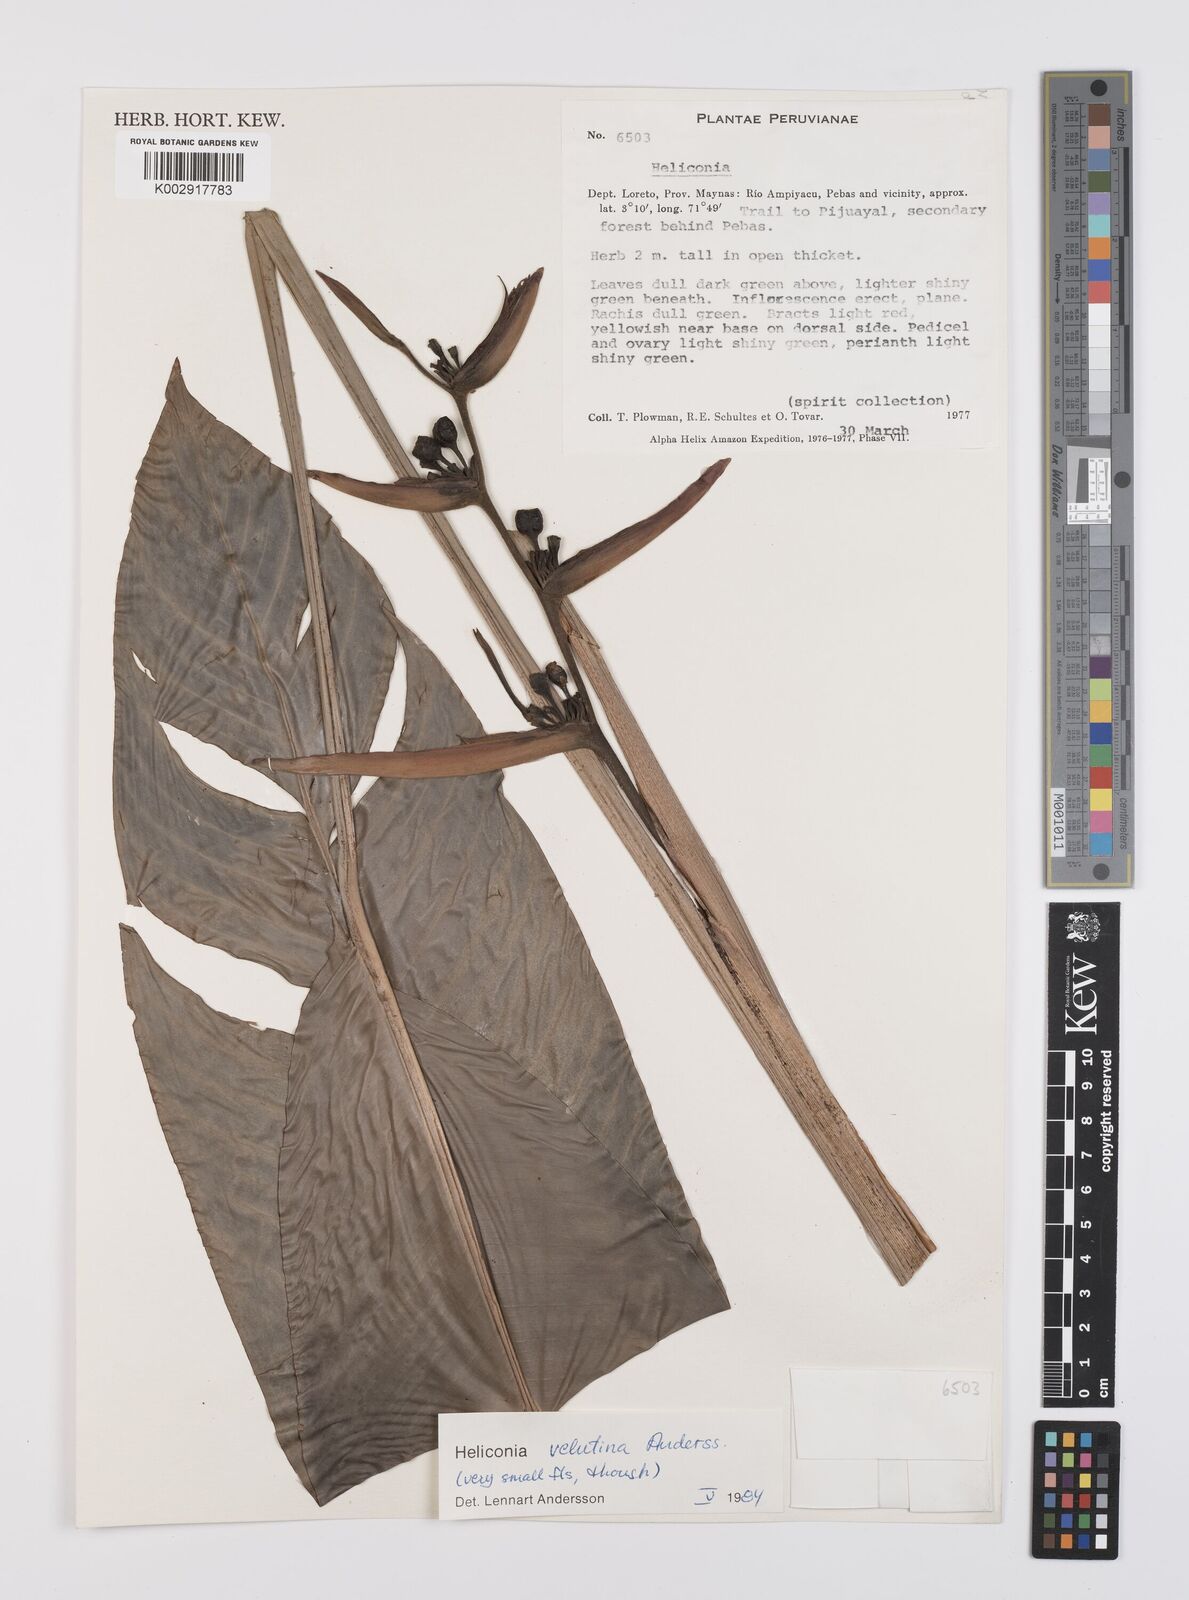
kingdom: Plantae
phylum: Tracheophyta
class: Liliopsida
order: Zingiberales
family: Heliconiaceae
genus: Heliconia
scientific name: Heliconia velutina
